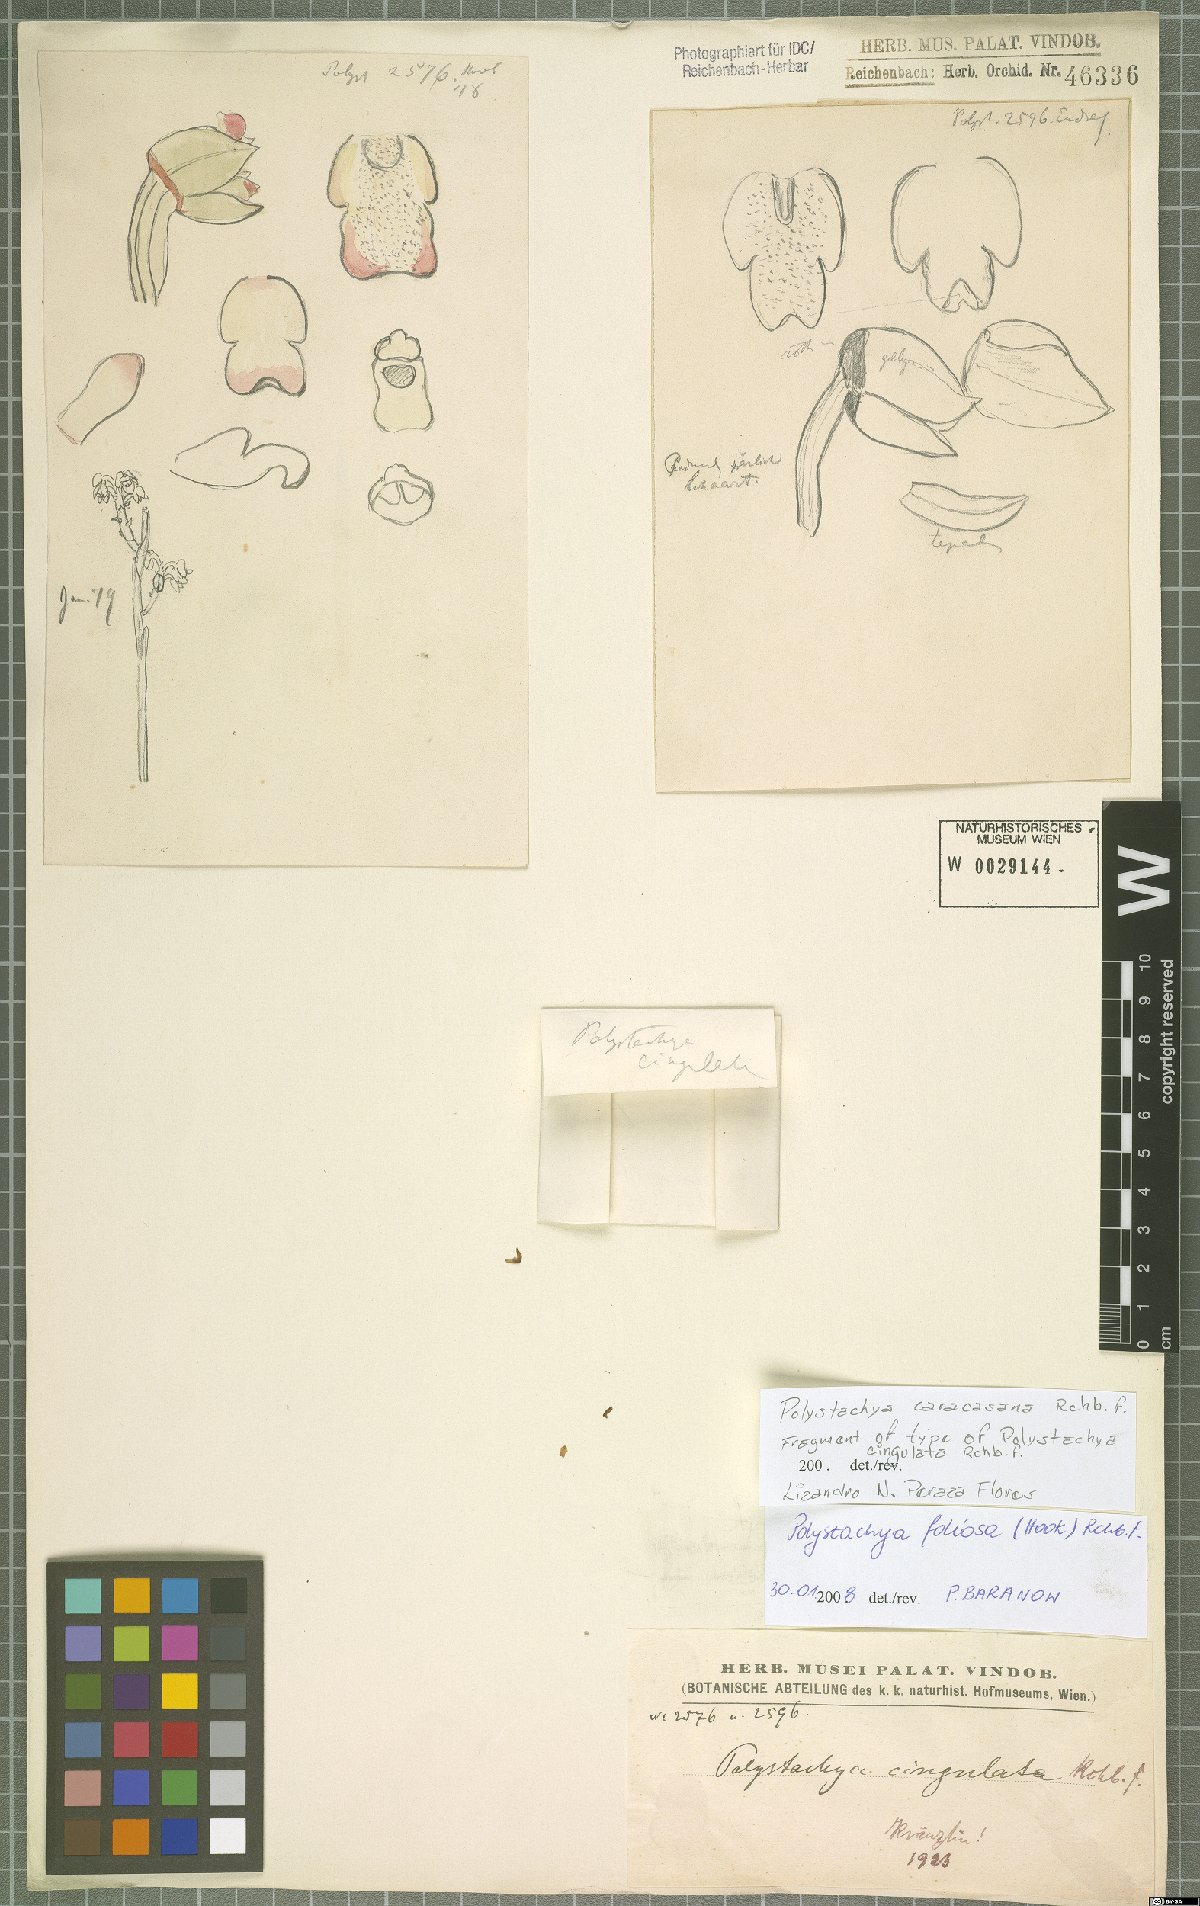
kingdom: Plantae
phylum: Tracheophyta
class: Liliopsida
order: Asparagales
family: Orchidaceae
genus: Polystachya
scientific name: Polystachya foliosa
